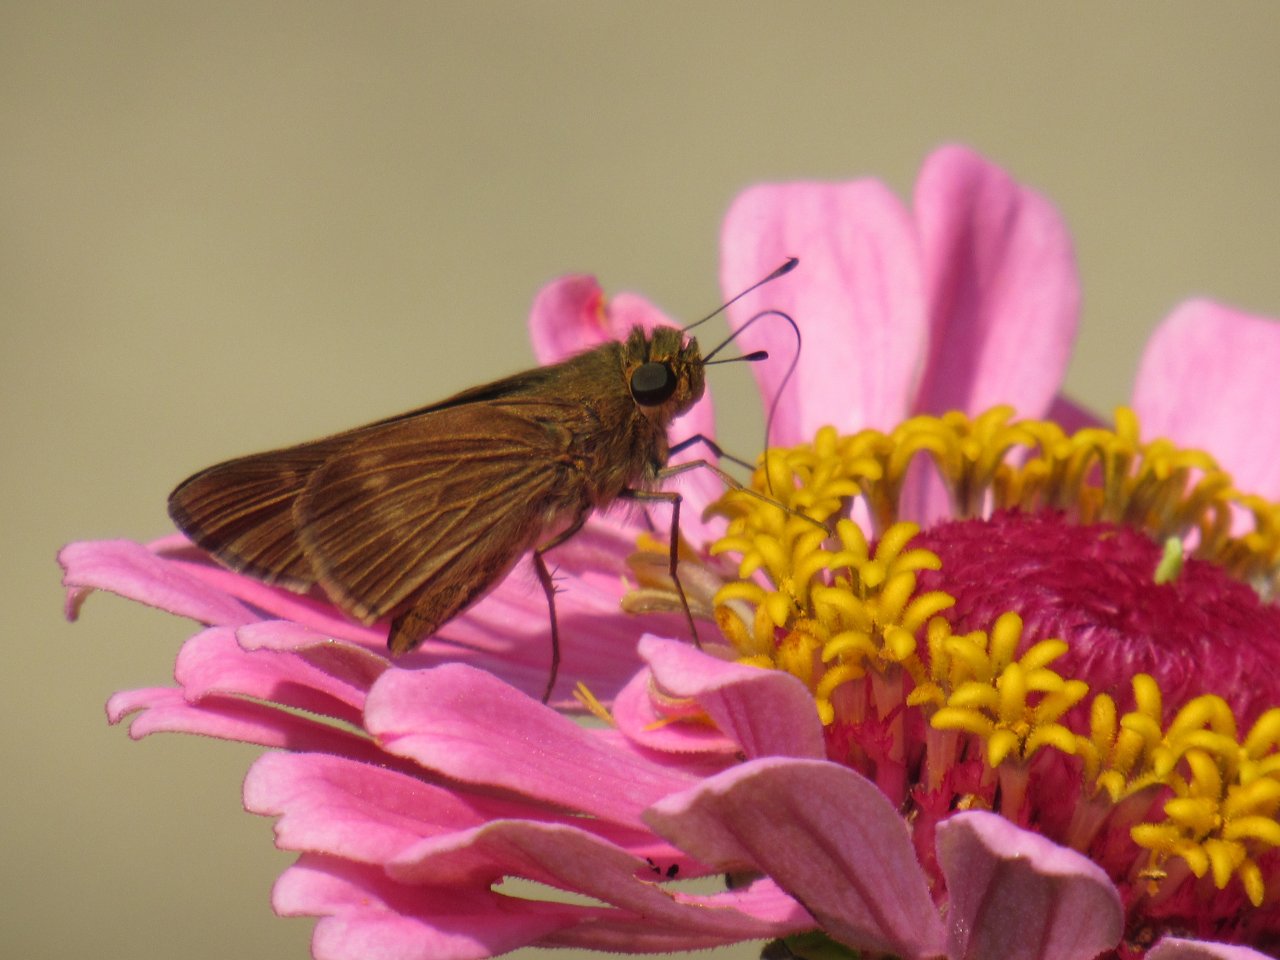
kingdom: Animalia
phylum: Arthropoda
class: Insecta
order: Lepidoptera
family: Hesperiidae
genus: Panoquina
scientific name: Panoquina ocola
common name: Ocola Skipper
